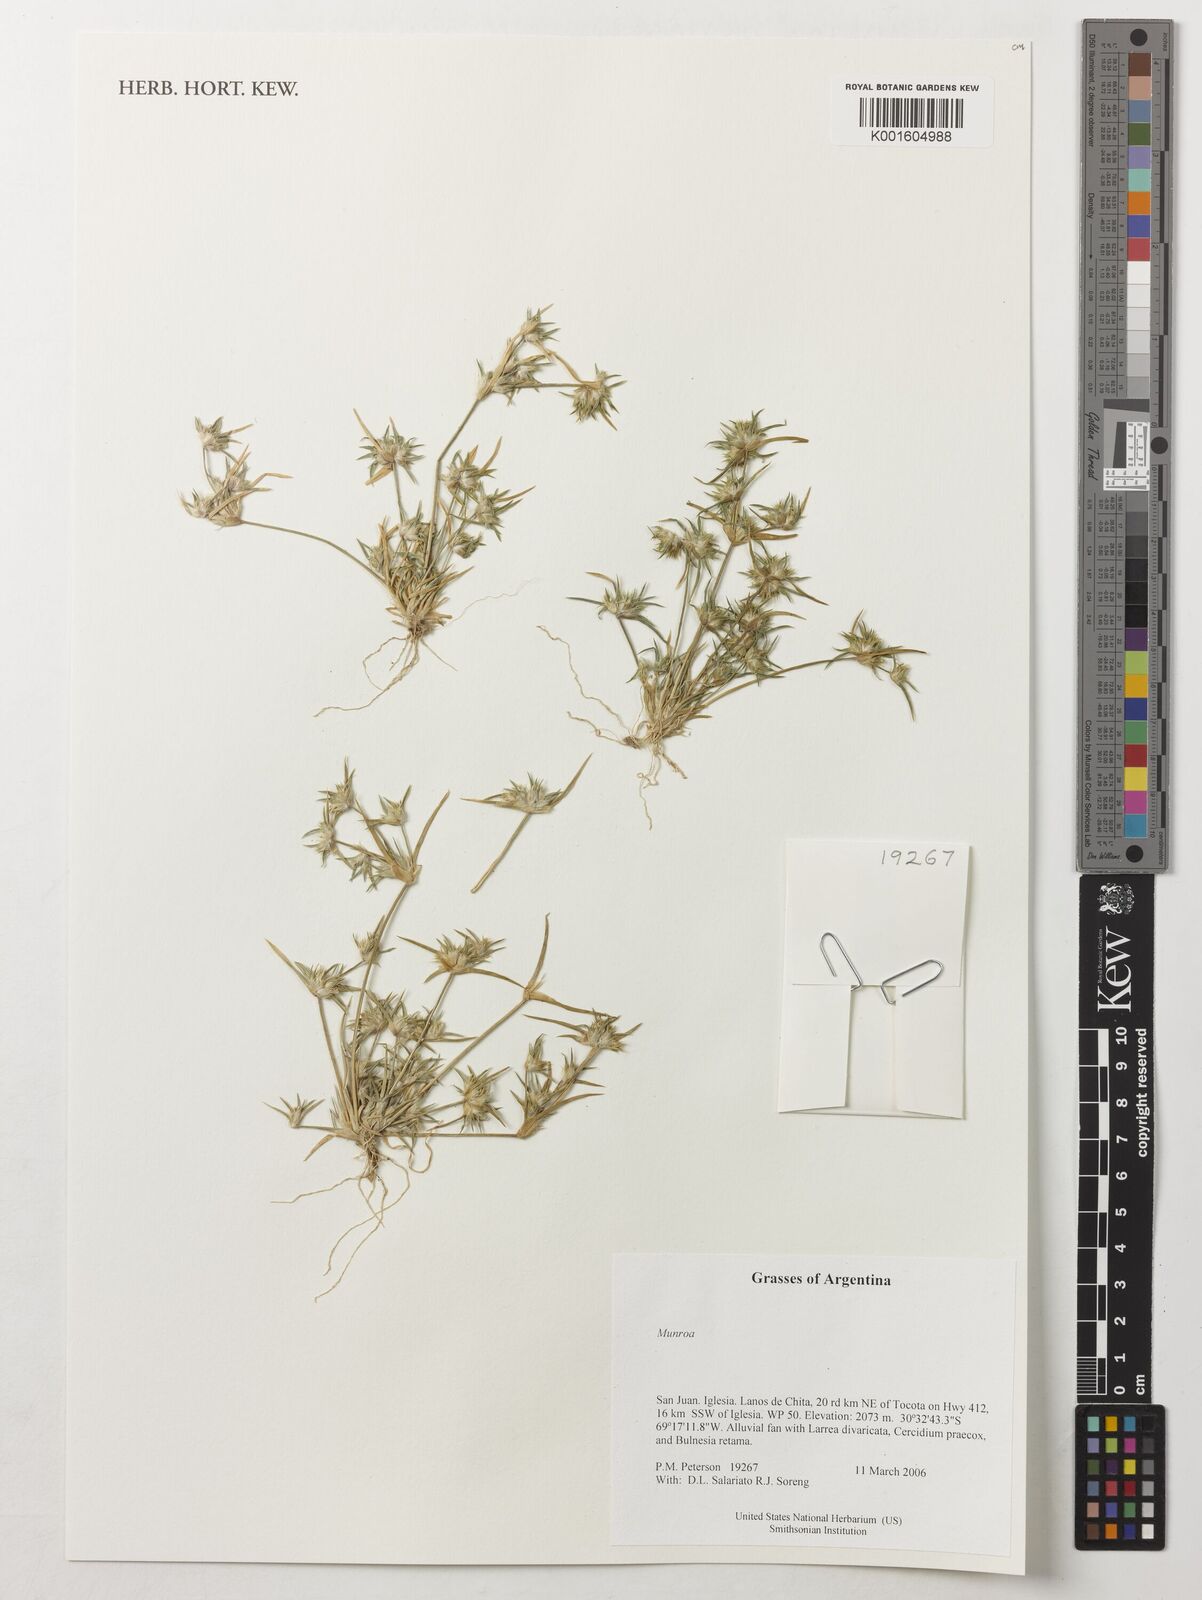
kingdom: Plantae
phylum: Tracheophyta
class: Liliopsida
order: Poales
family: Poaceae
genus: Munroa
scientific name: Munroa
